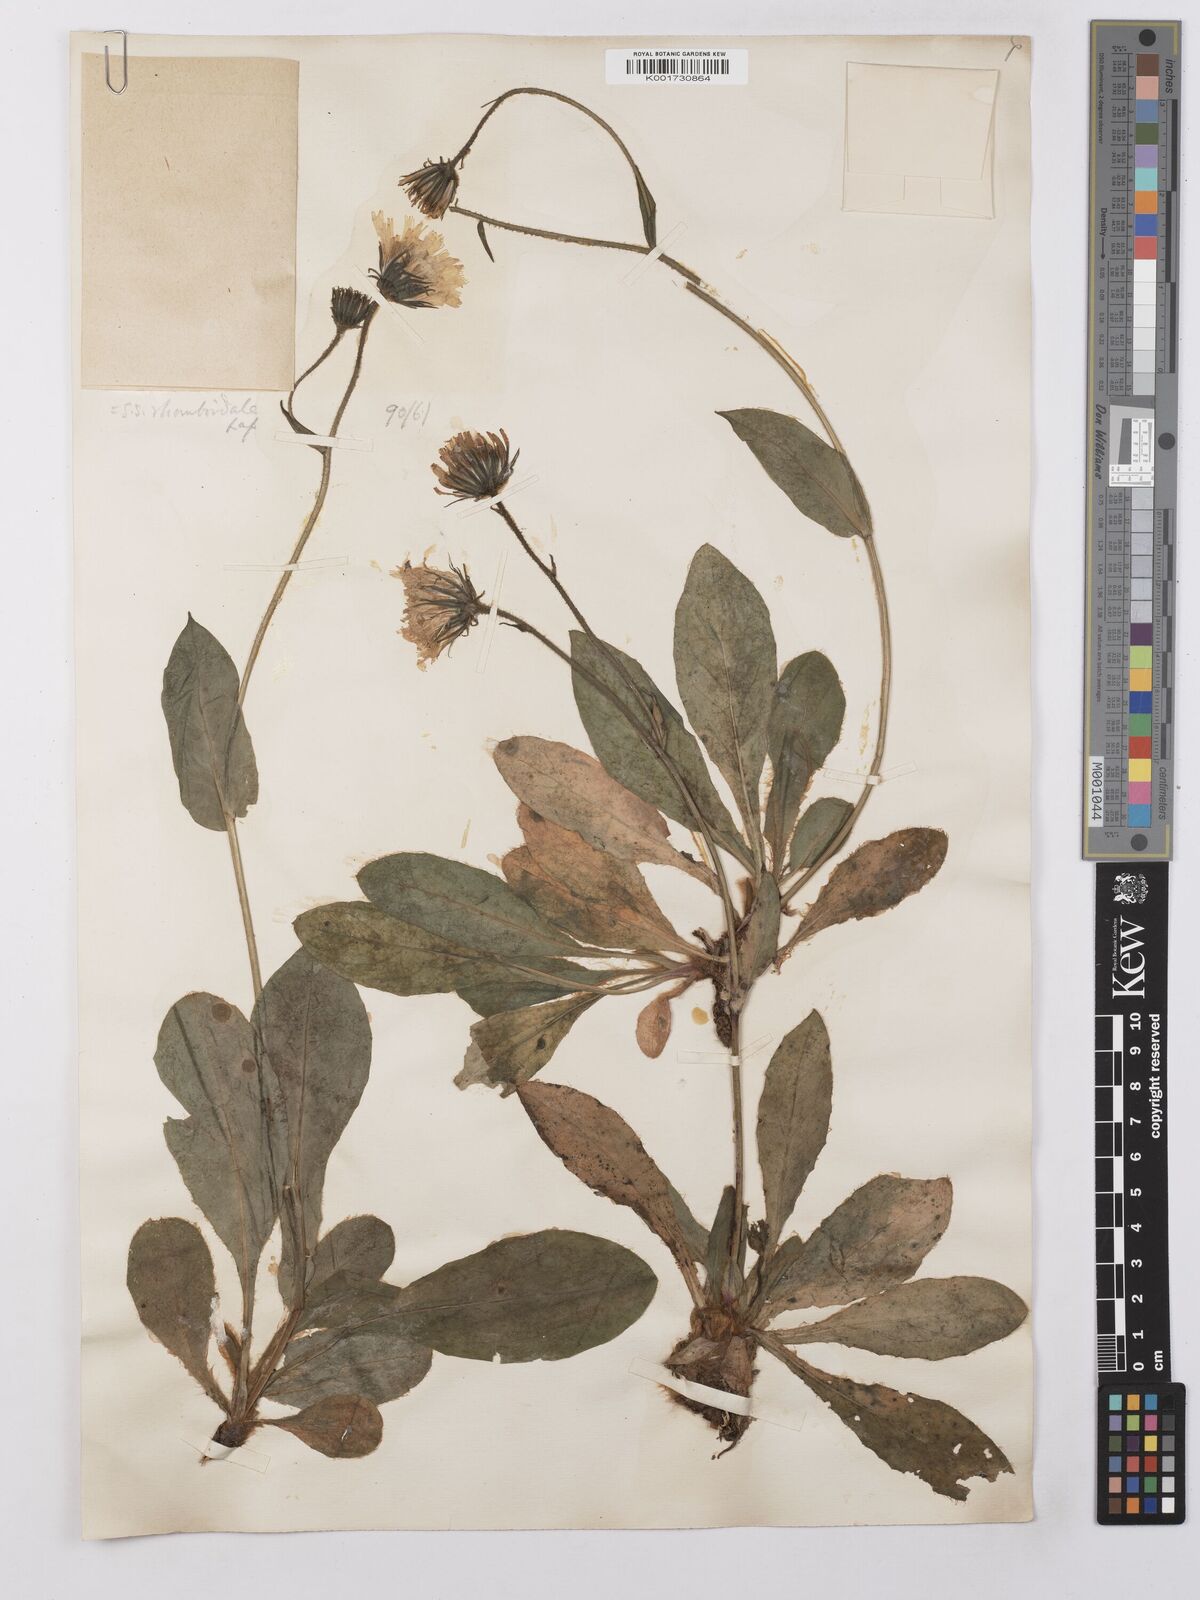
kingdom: Plantae
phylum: Tracheophyta
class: Magnoliopsida
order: Asterales
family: Asteraceae
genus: Hieracium
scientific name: Hieracium cerinthoides
